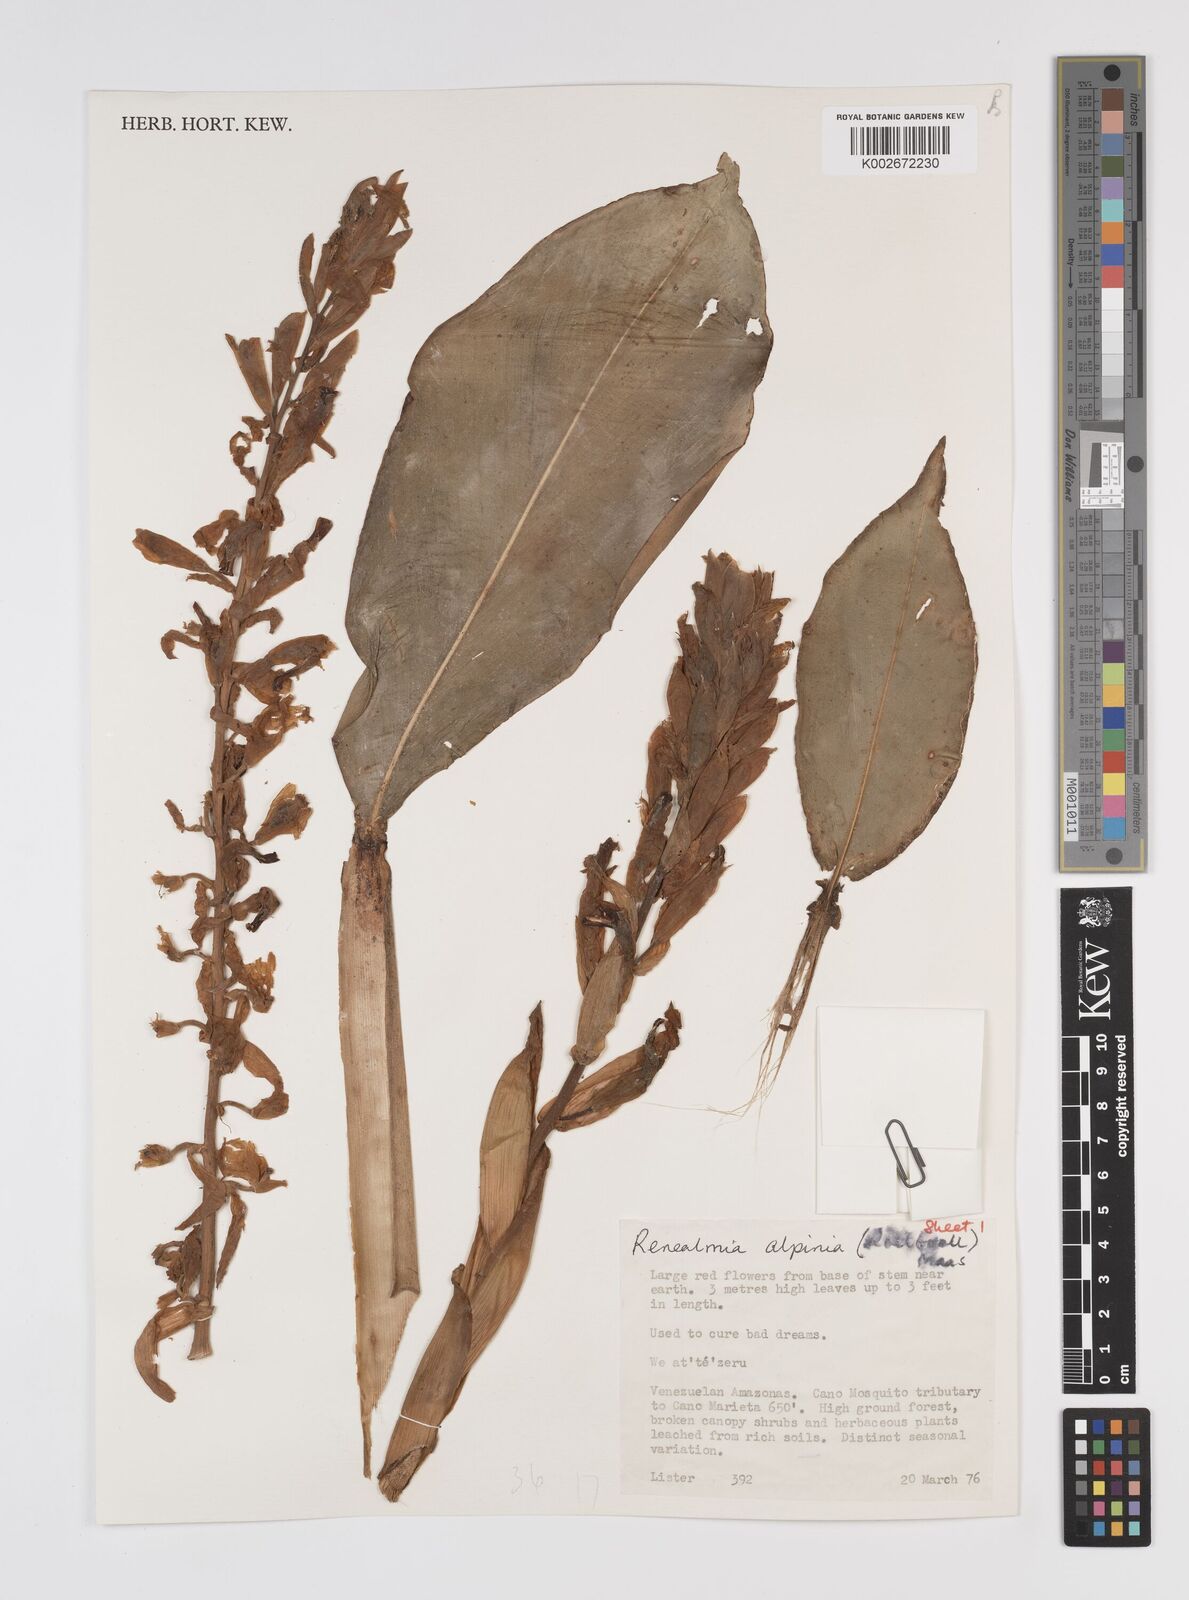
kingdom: Plantae
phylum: Tracheophyta
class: Liliopsida
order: Zingiberales
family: Zingiberaceae
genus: Renealmia
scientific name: Renealmia alpinia
